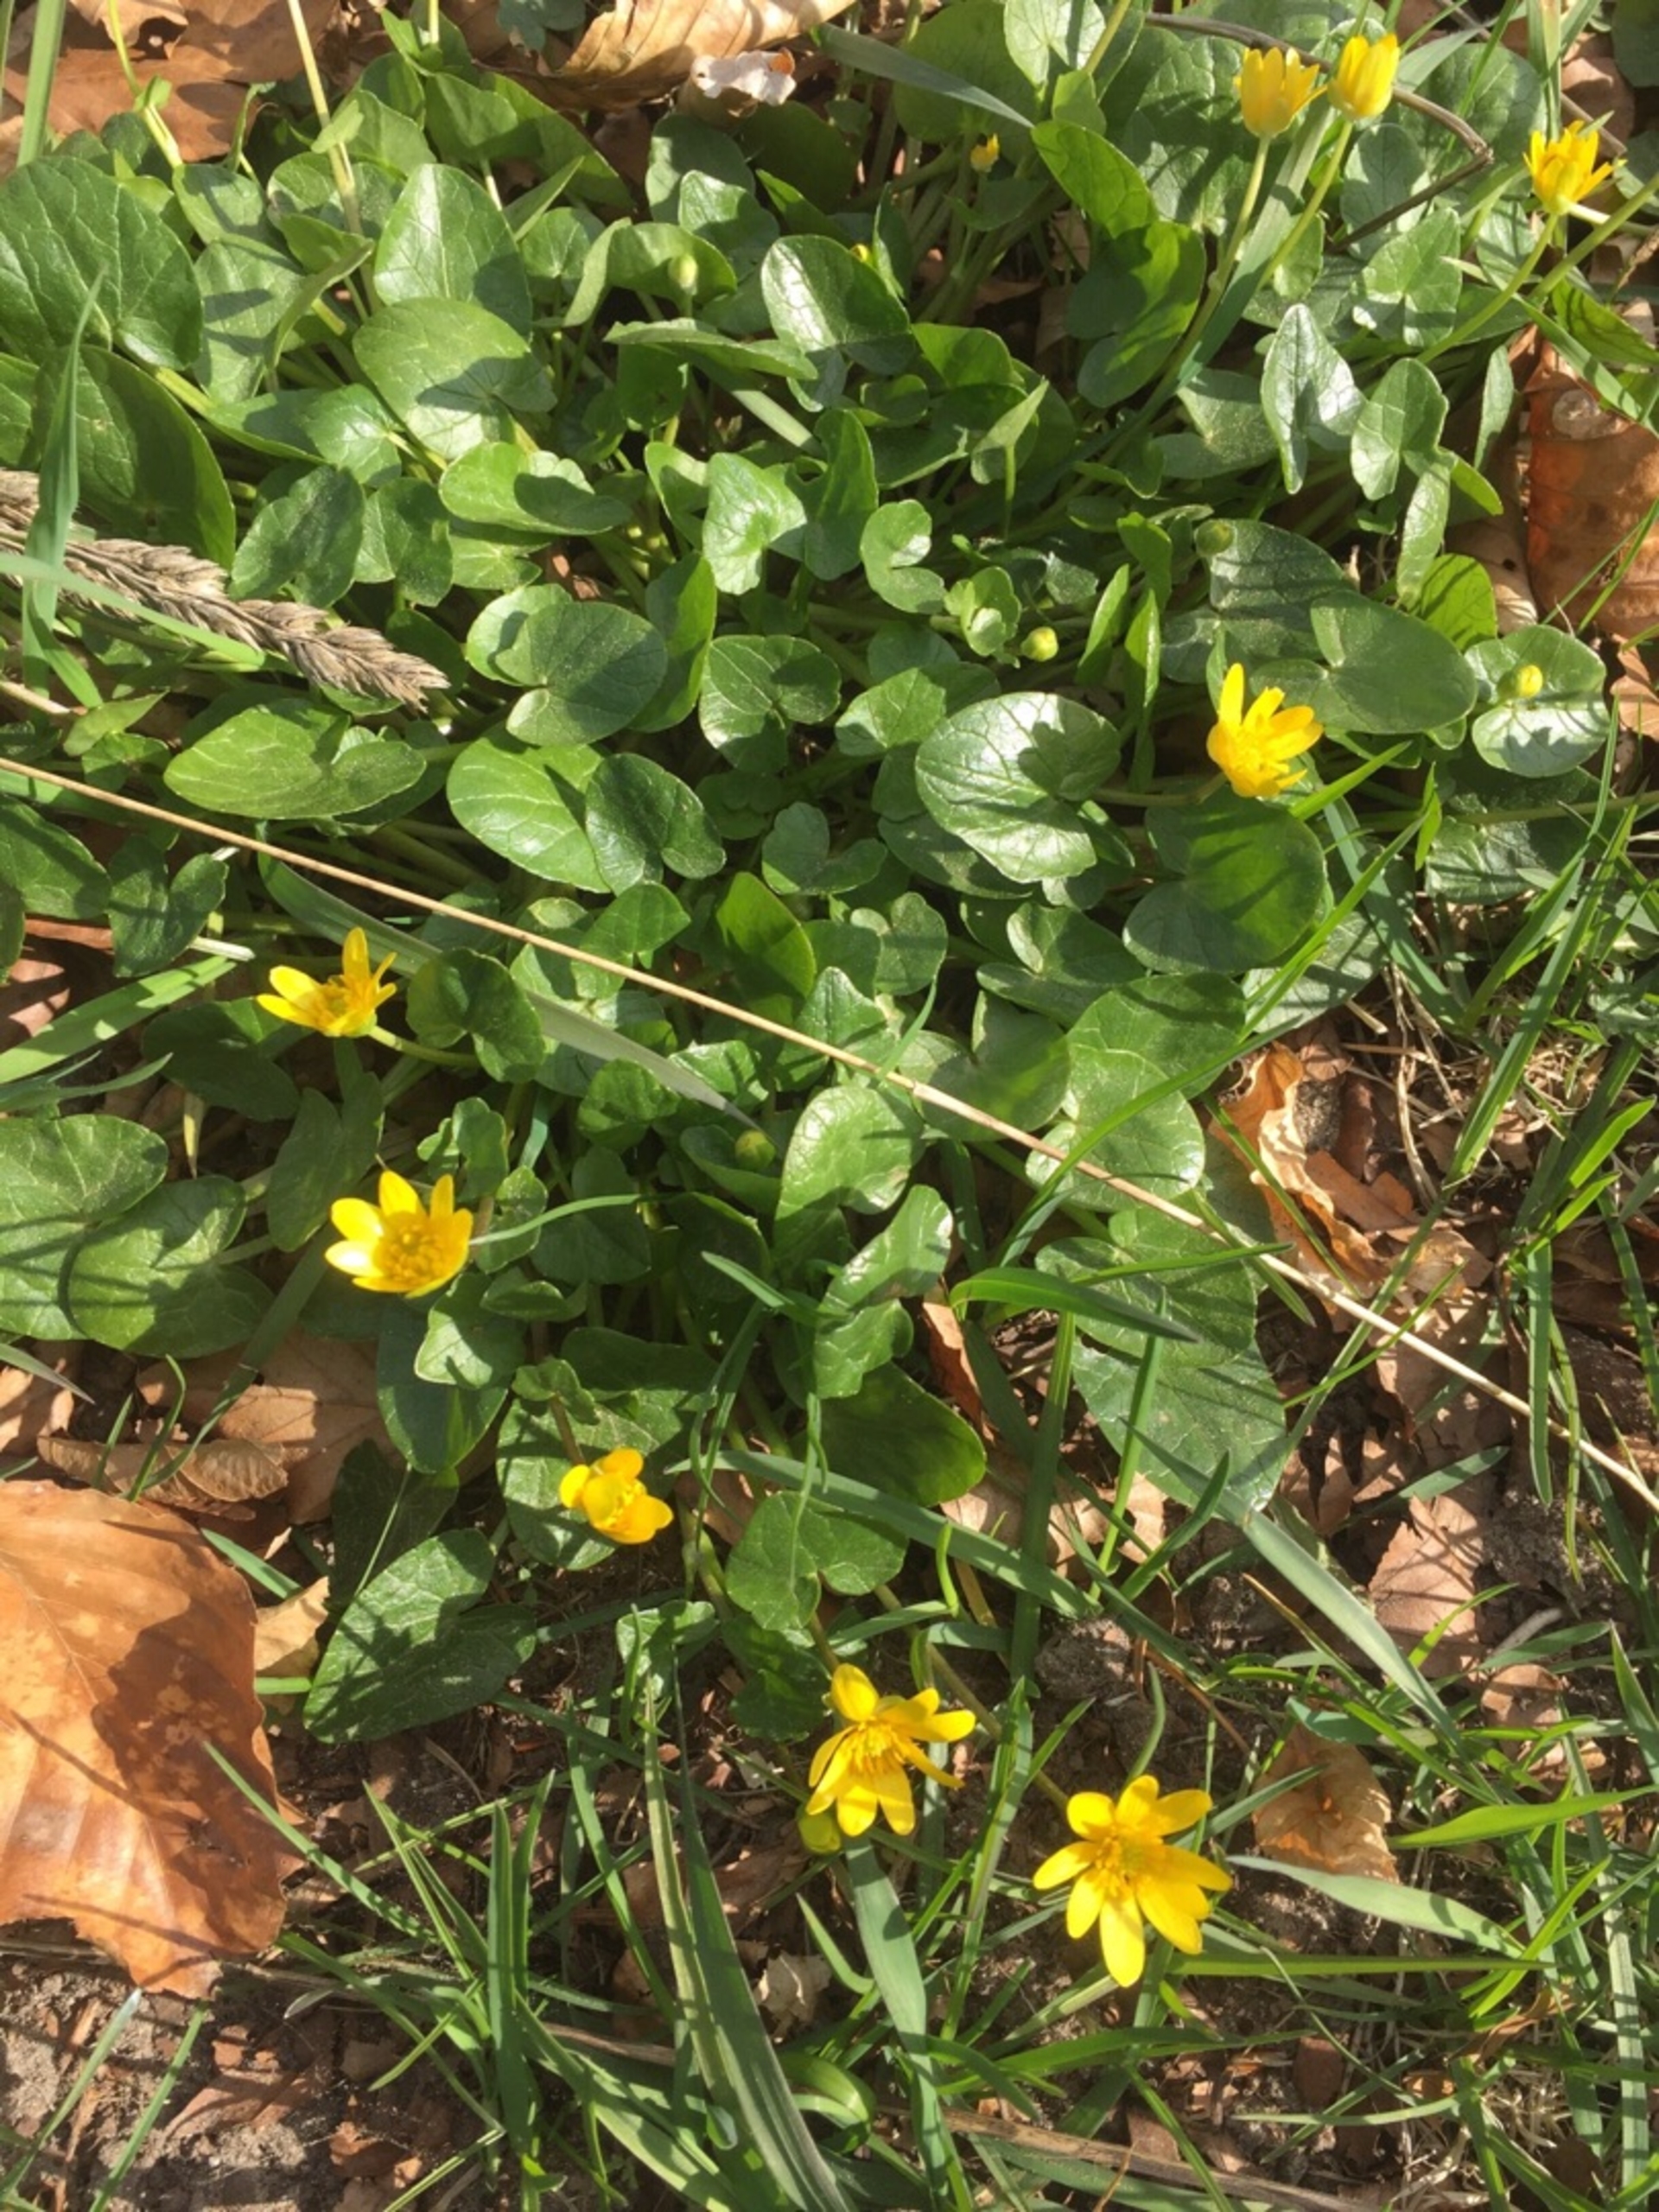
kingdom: Plantae
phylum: Tracheophyta
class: Magnoliopsida
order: Ranunculales
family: Ranunculaceae
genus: Ficaria
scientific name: Ficaria verna
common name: Vorterod
